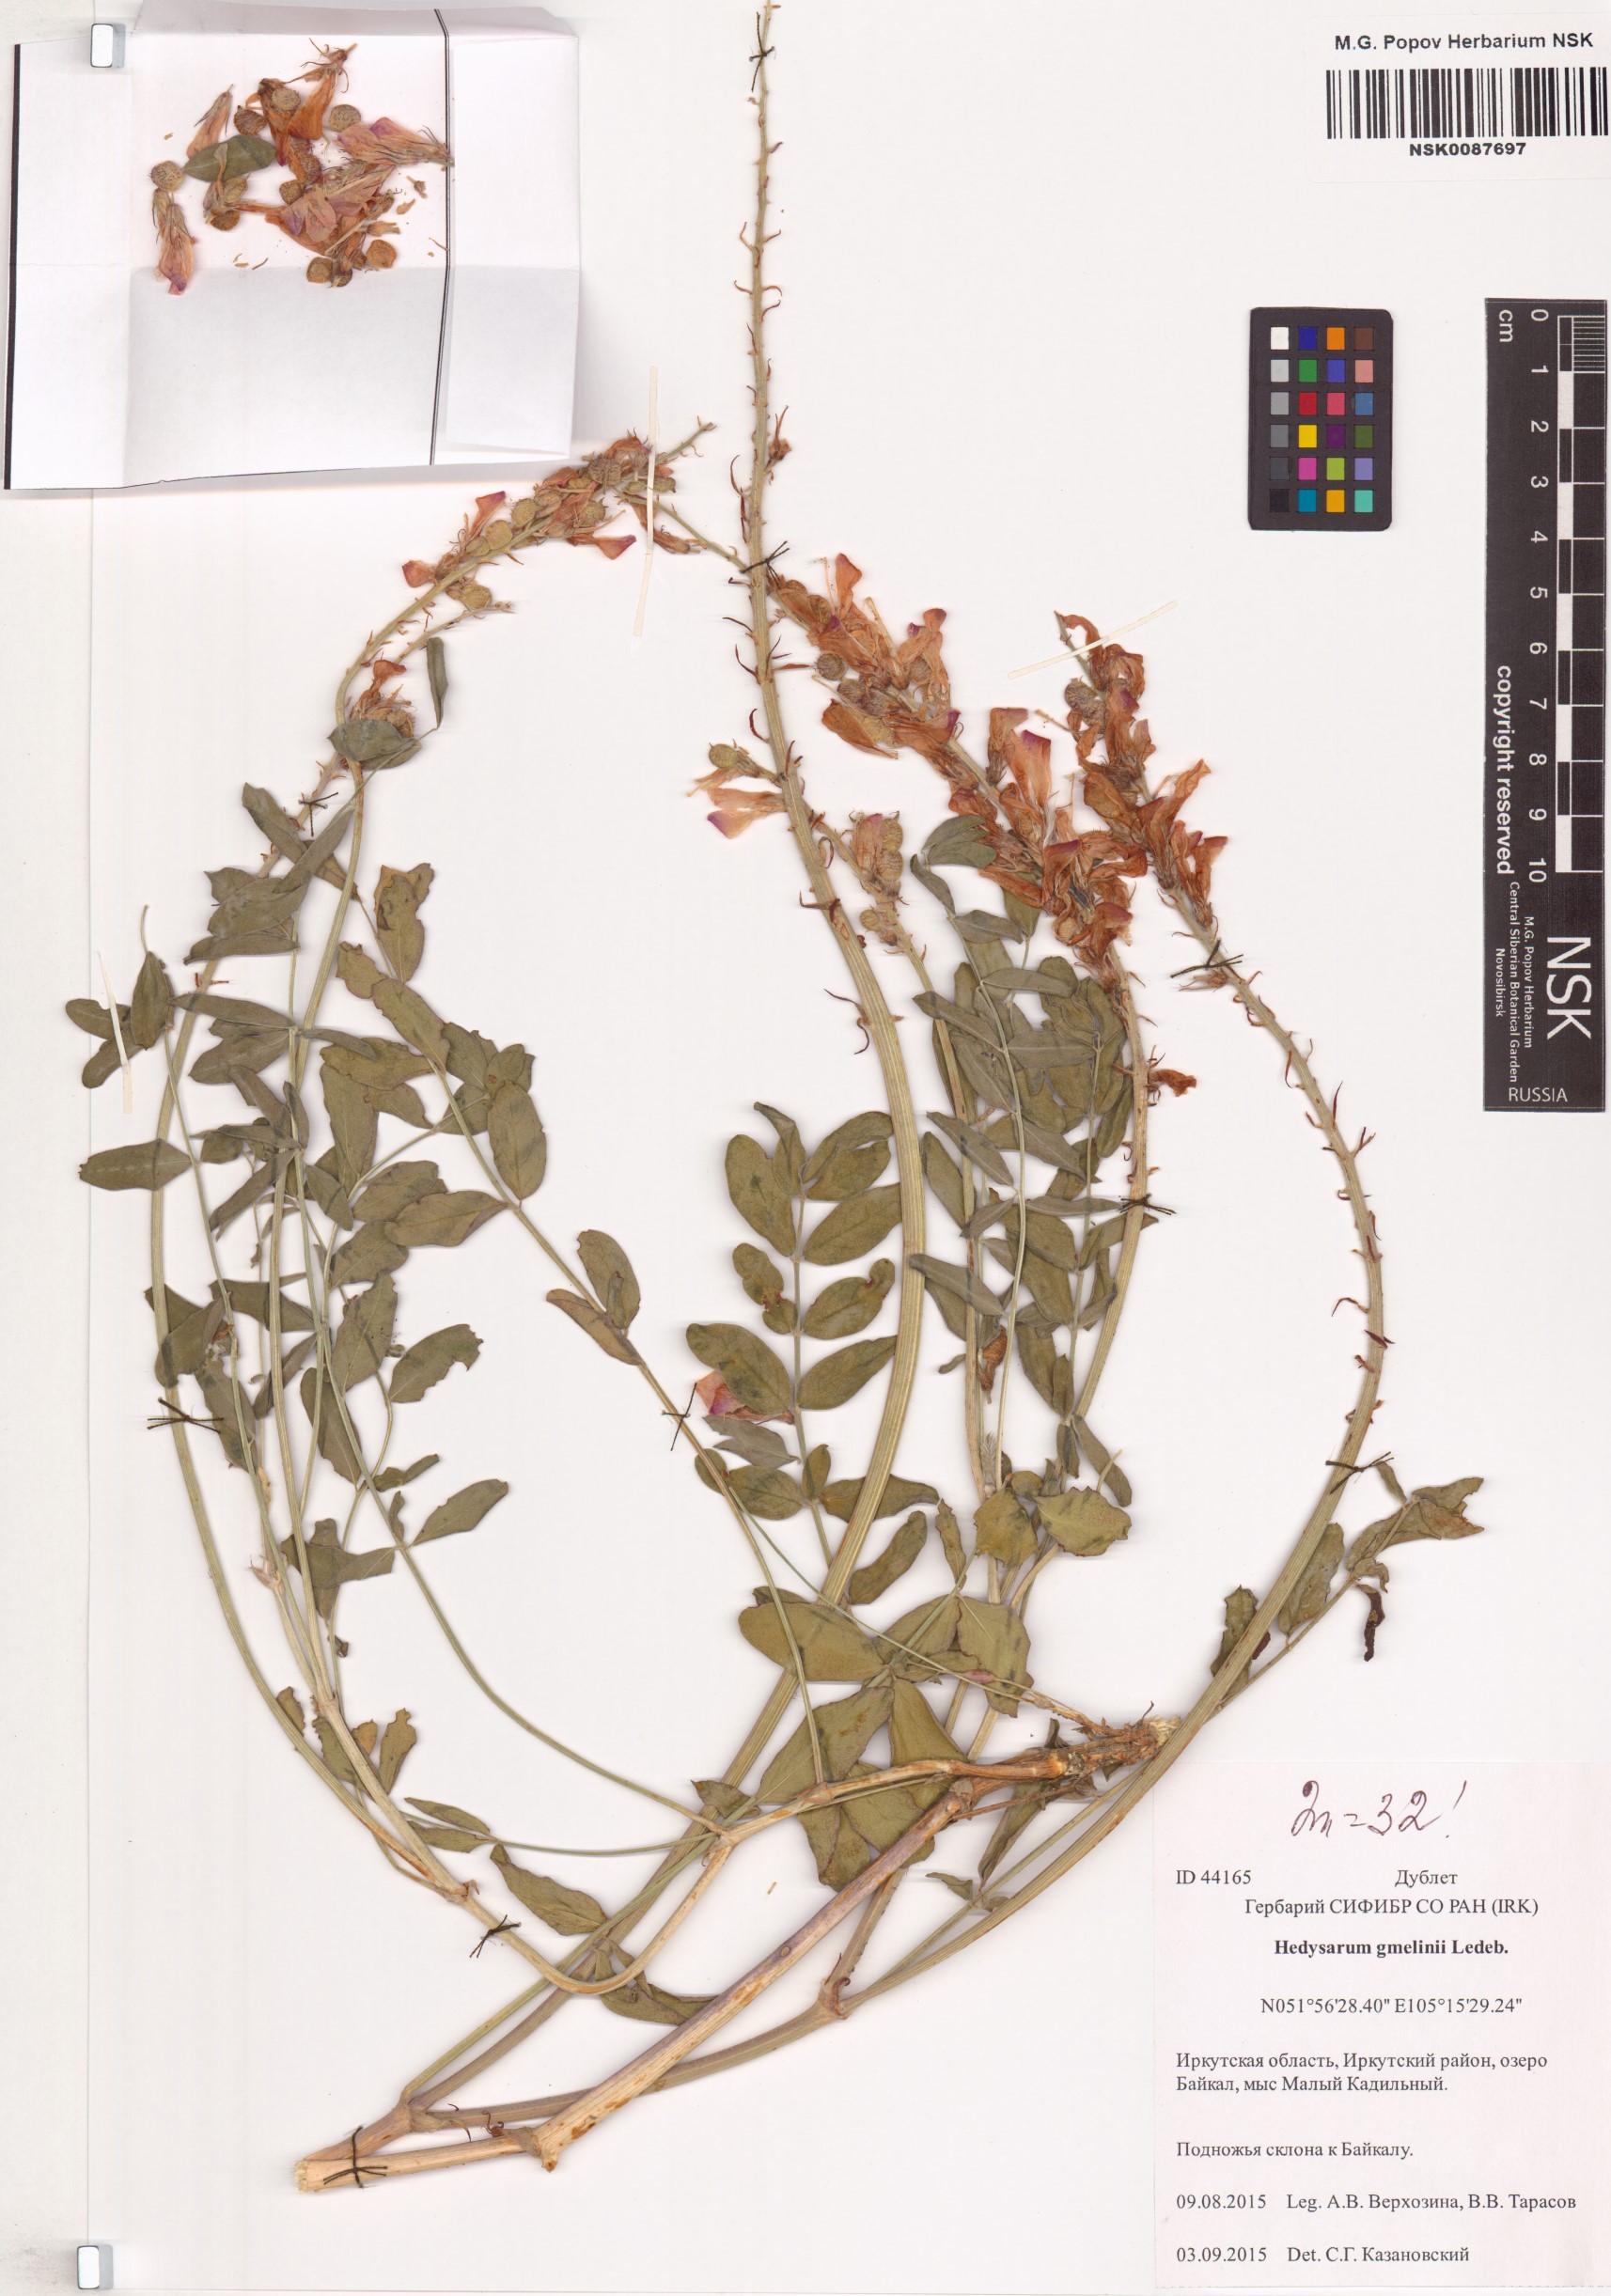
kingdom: Plantae
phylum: Tracheophyta
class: Magnoliopsida
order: Fabales
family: Fabaceae
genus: Hedysarum
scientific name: Hedysarum gmelinii
